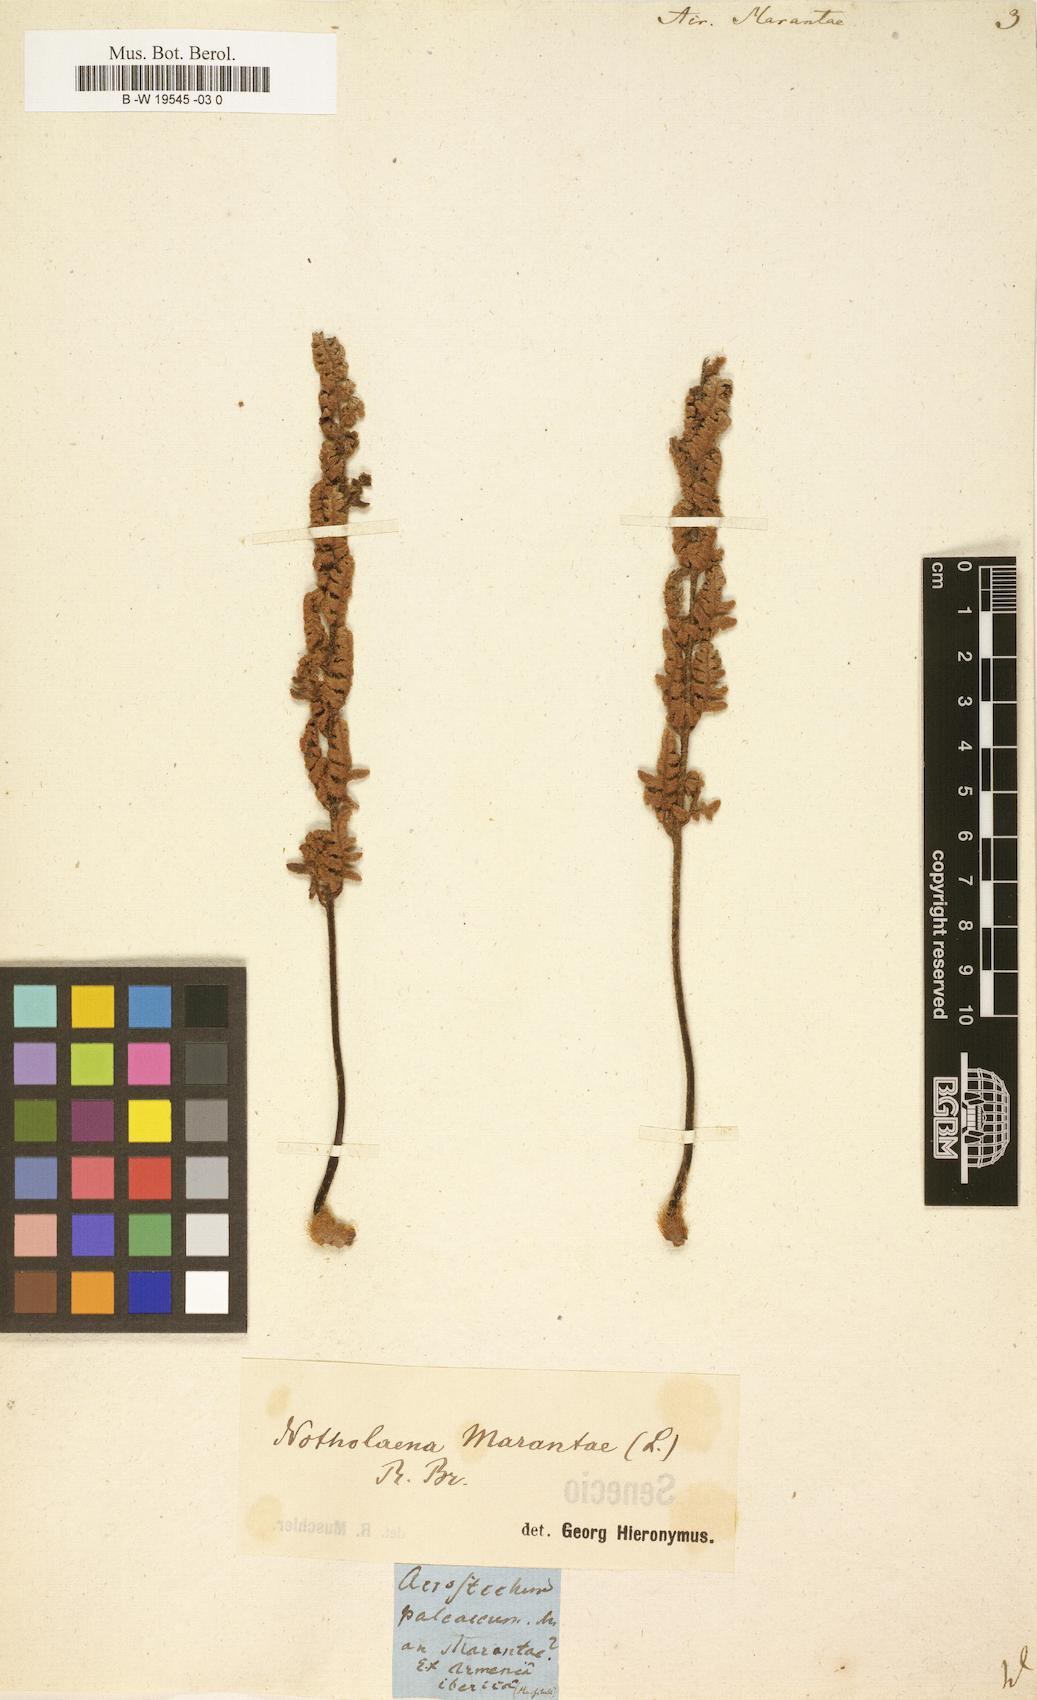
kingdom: Plantae
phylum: Tracheophyta
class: Polypodiopsida
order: Polypodiales
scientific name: Polypodiales
